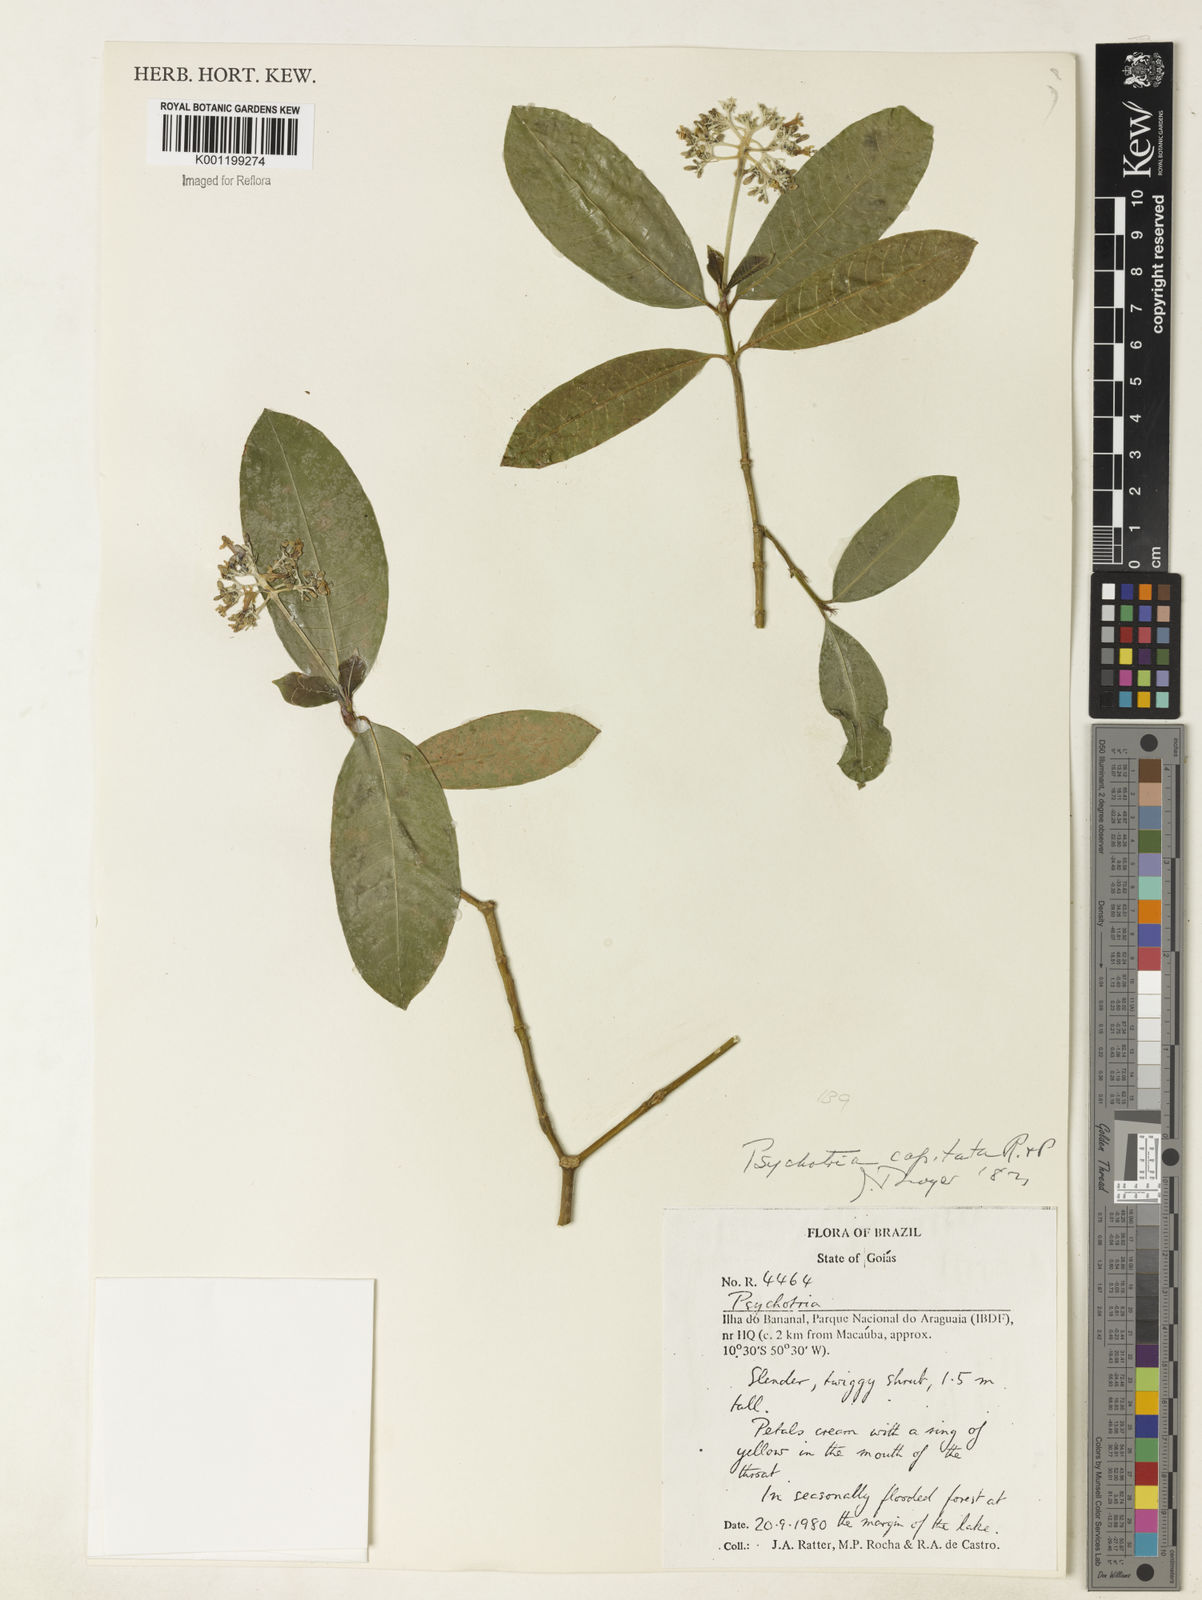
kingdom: Plantae
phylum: Tracheophyta
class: Magnoliopsida
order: Gentianales
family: Rubiaceae
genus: Palicourea
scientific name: Palicourea violacea
